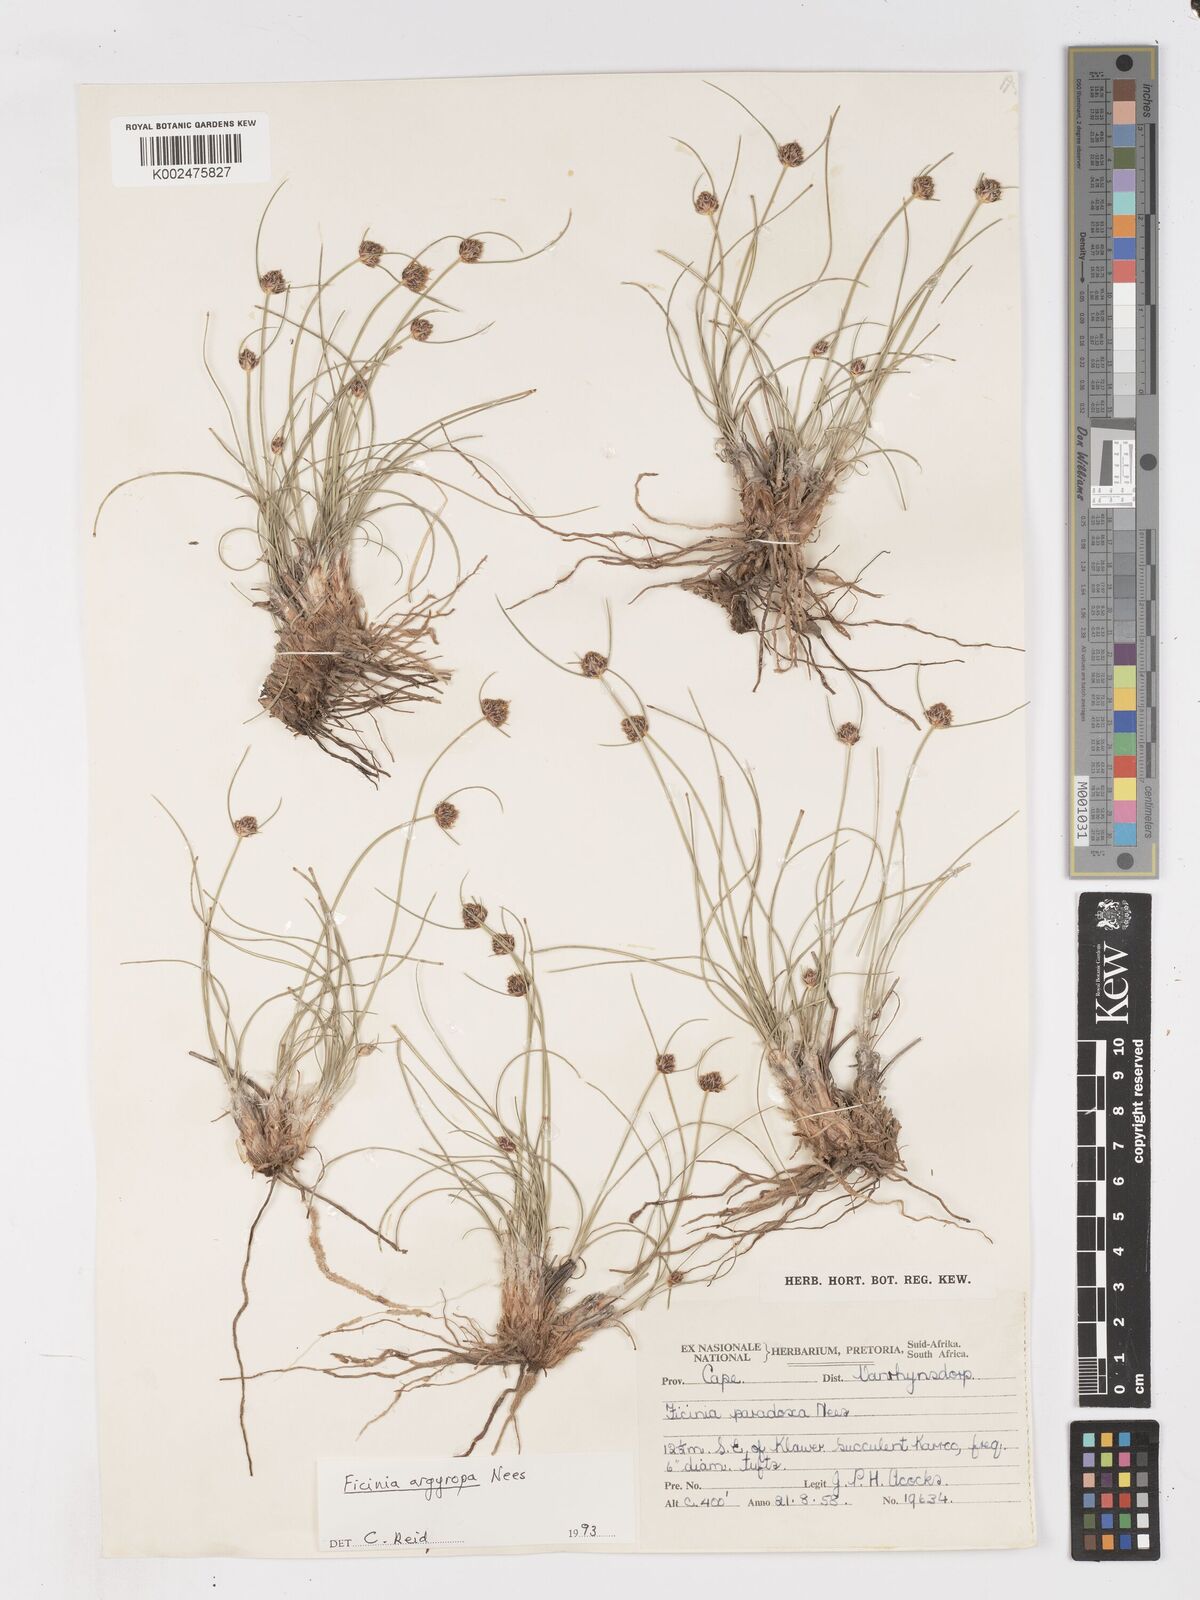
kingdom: Plantae
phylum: Tracheophyta
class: Liliopsida
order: Poales
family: Cyperaceae
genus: Ficinia
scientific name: Ficinia argyropus
